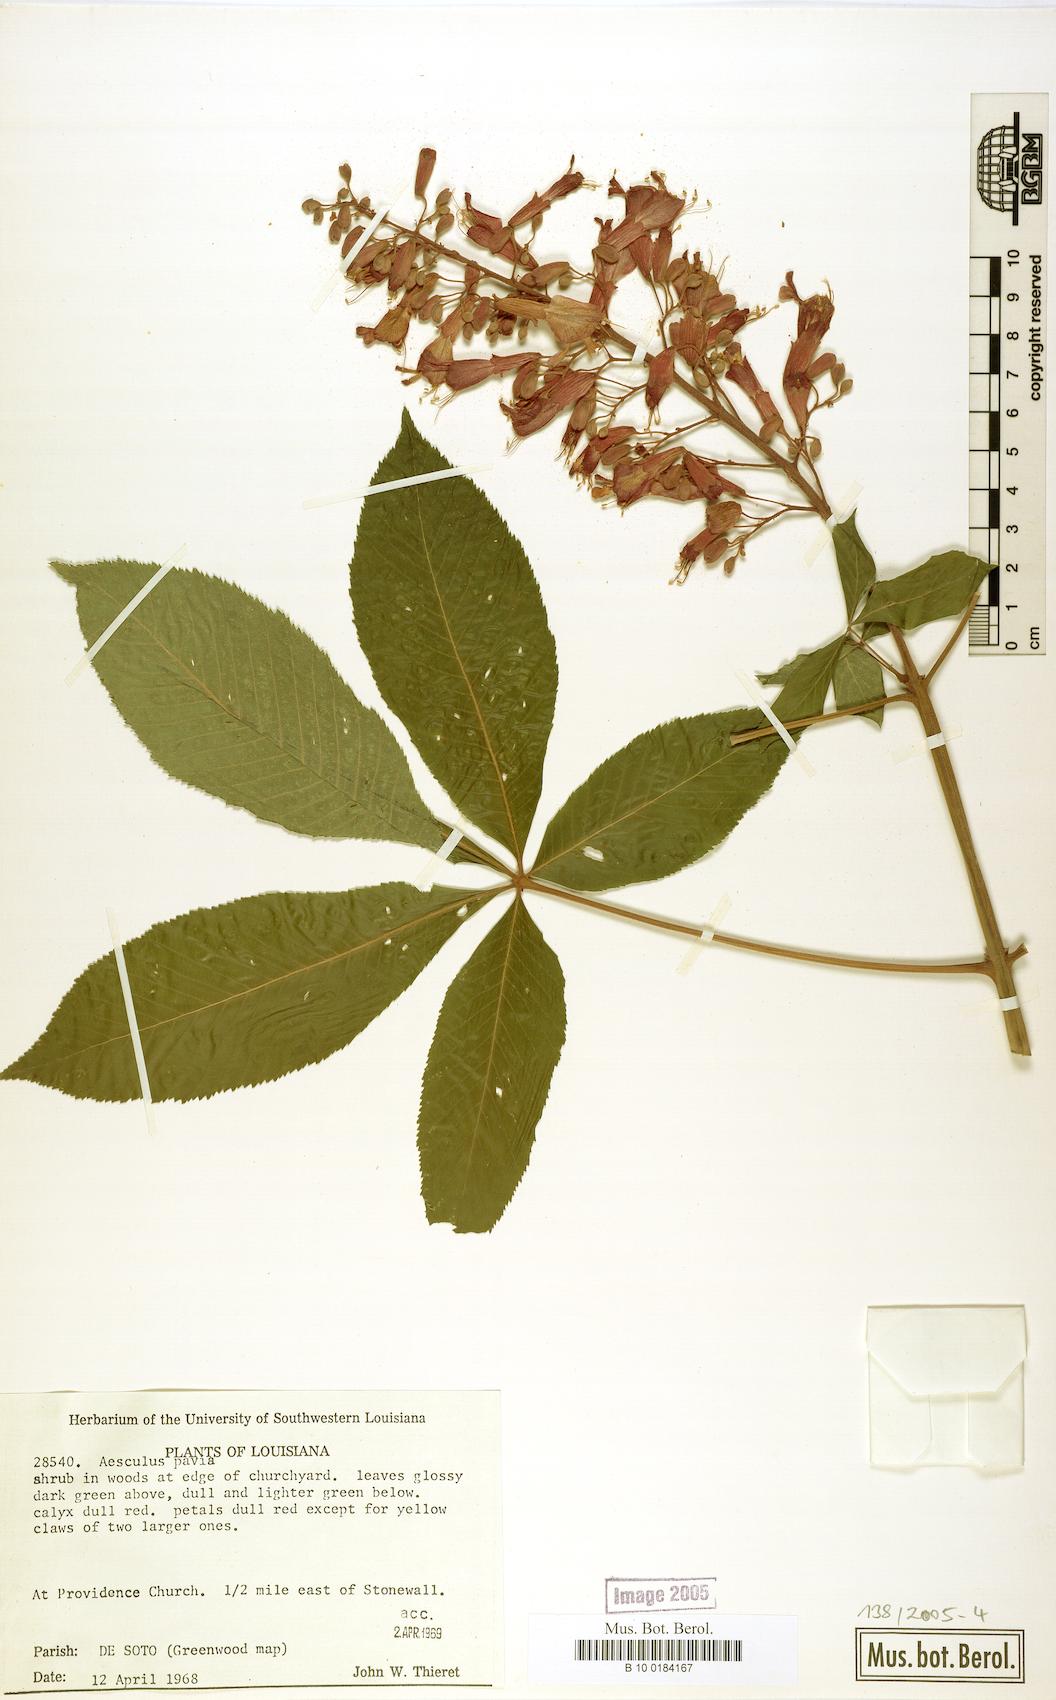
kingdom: Plantae
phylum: Tracheophyta
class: Magnoliopsida
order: Sapindales
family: Sapindaceae
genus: Aesculus
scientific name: Aesculus pavia
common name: Red buckeye
